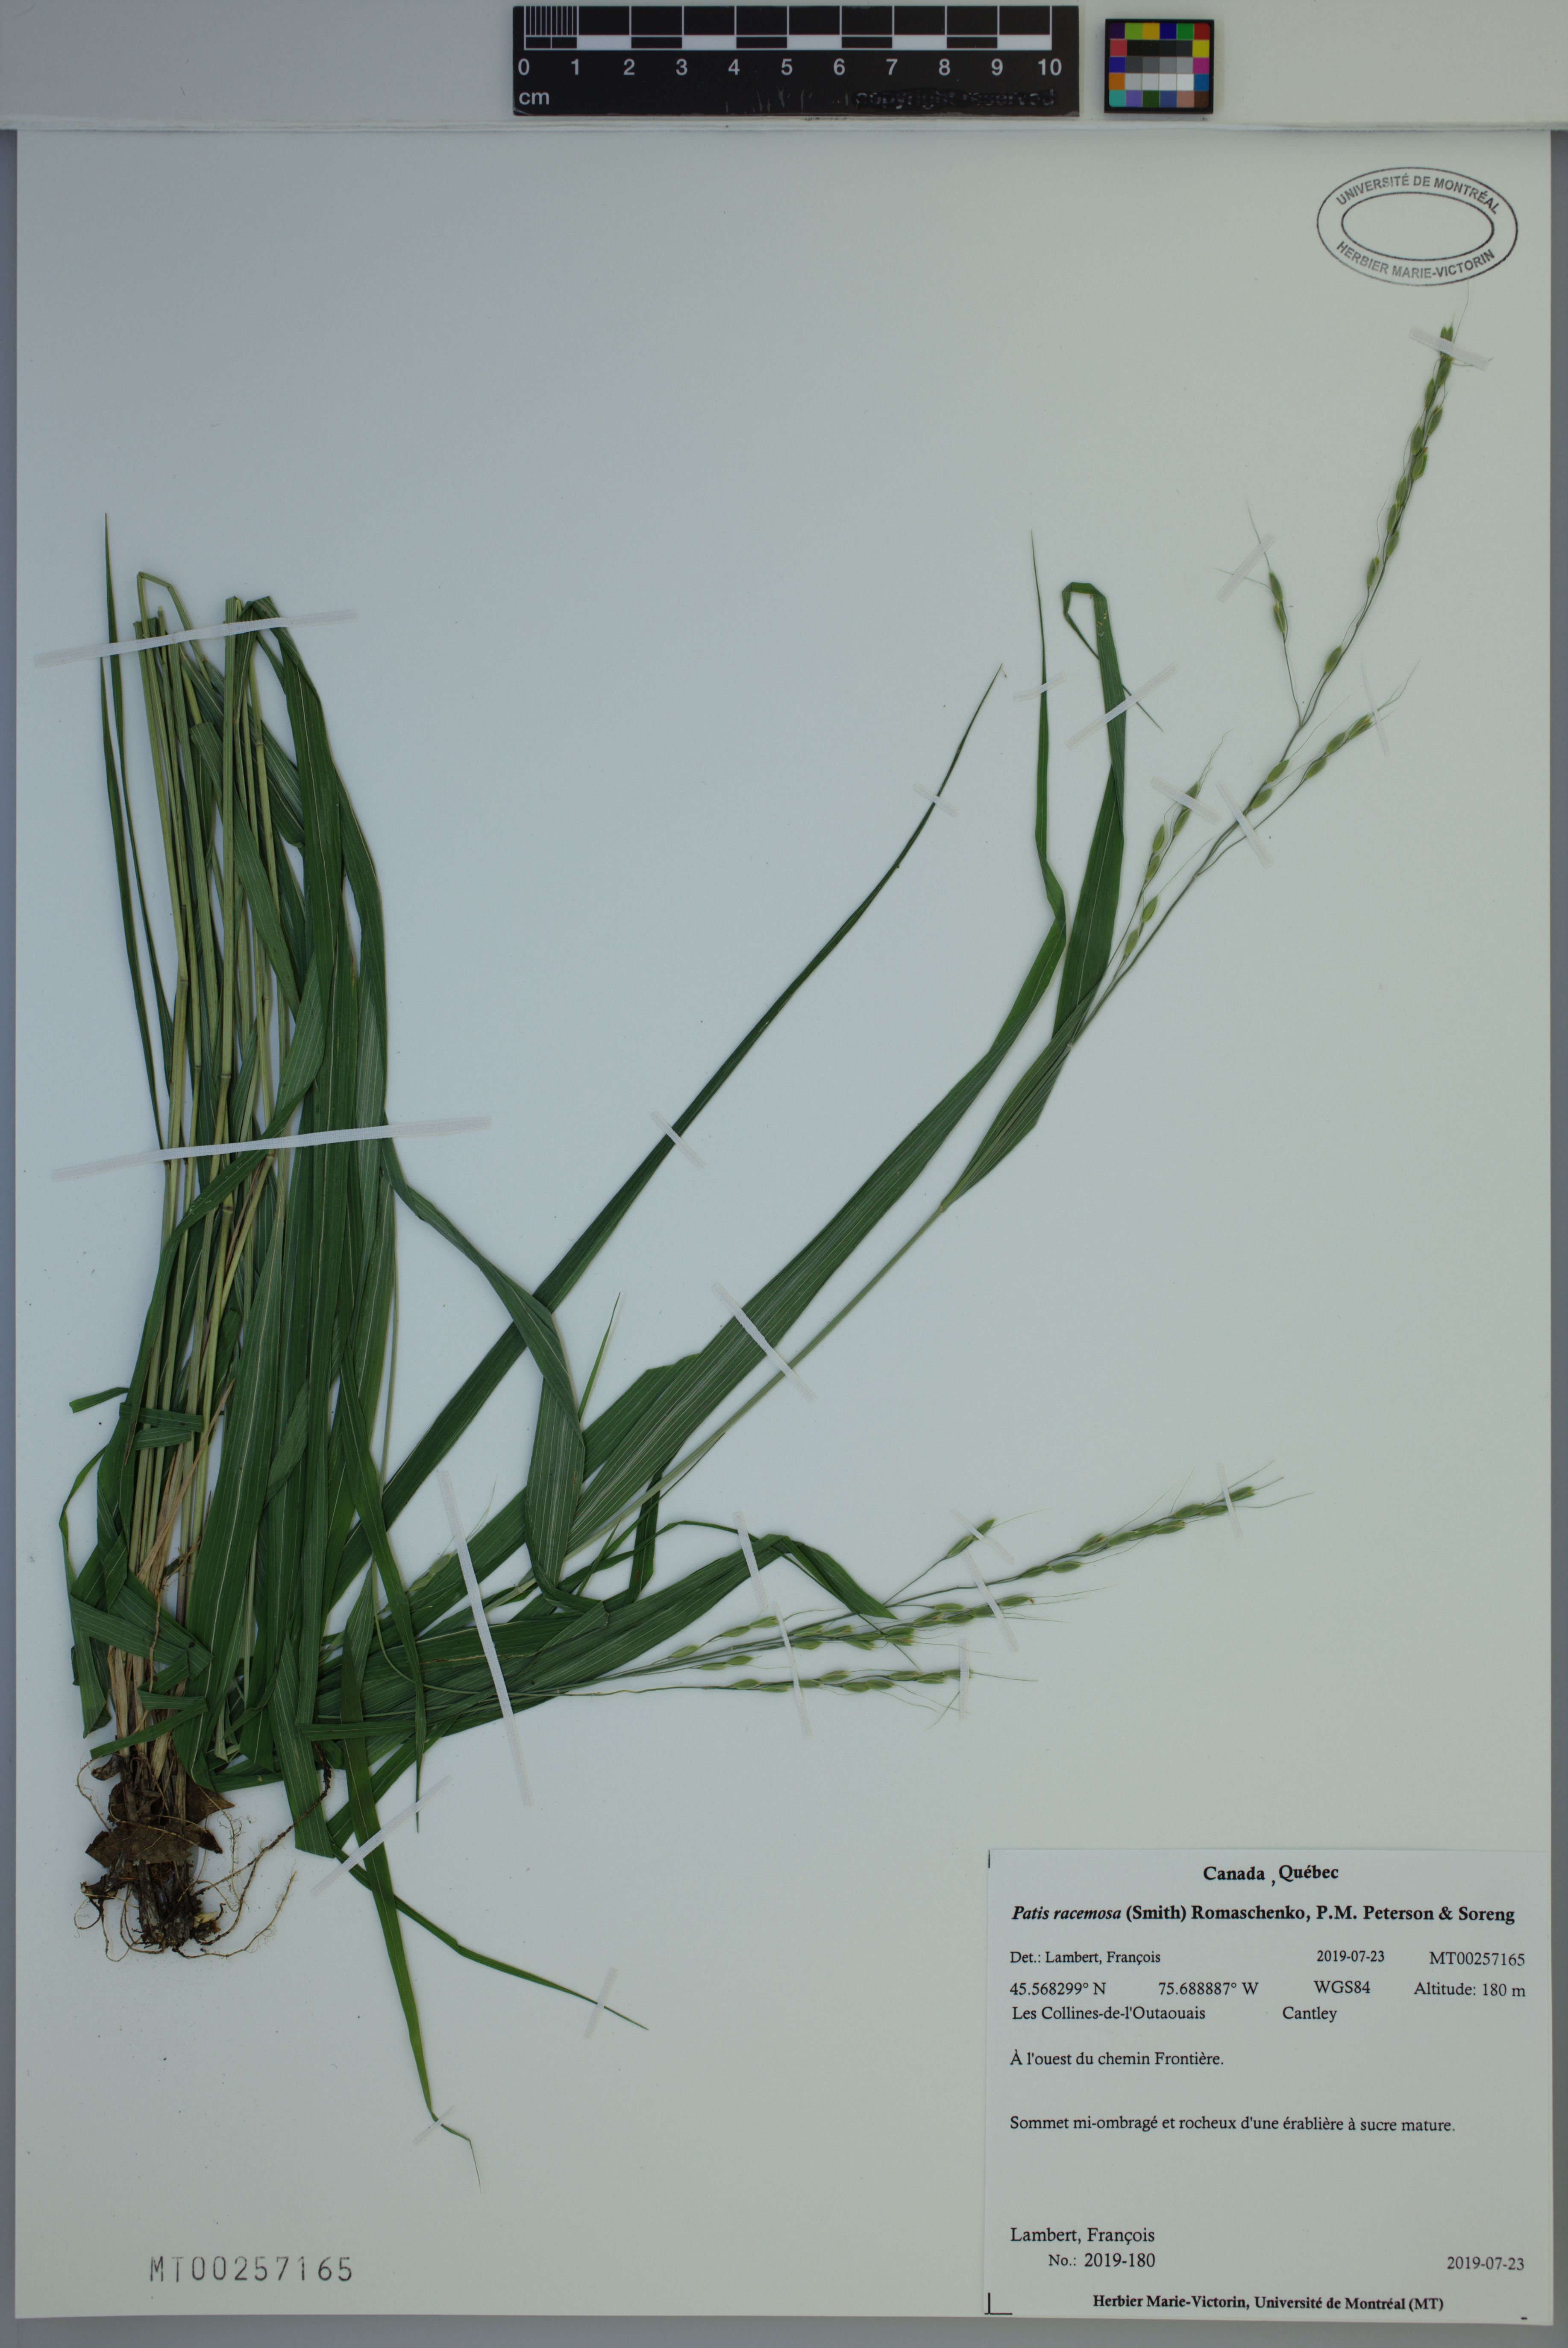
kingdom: Plantae
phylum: Tracheophyta
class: Liliopsida
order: Poales
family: Poaceae
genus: Patis
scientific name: Patis racemosa
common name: Black-fruited mountain rice
